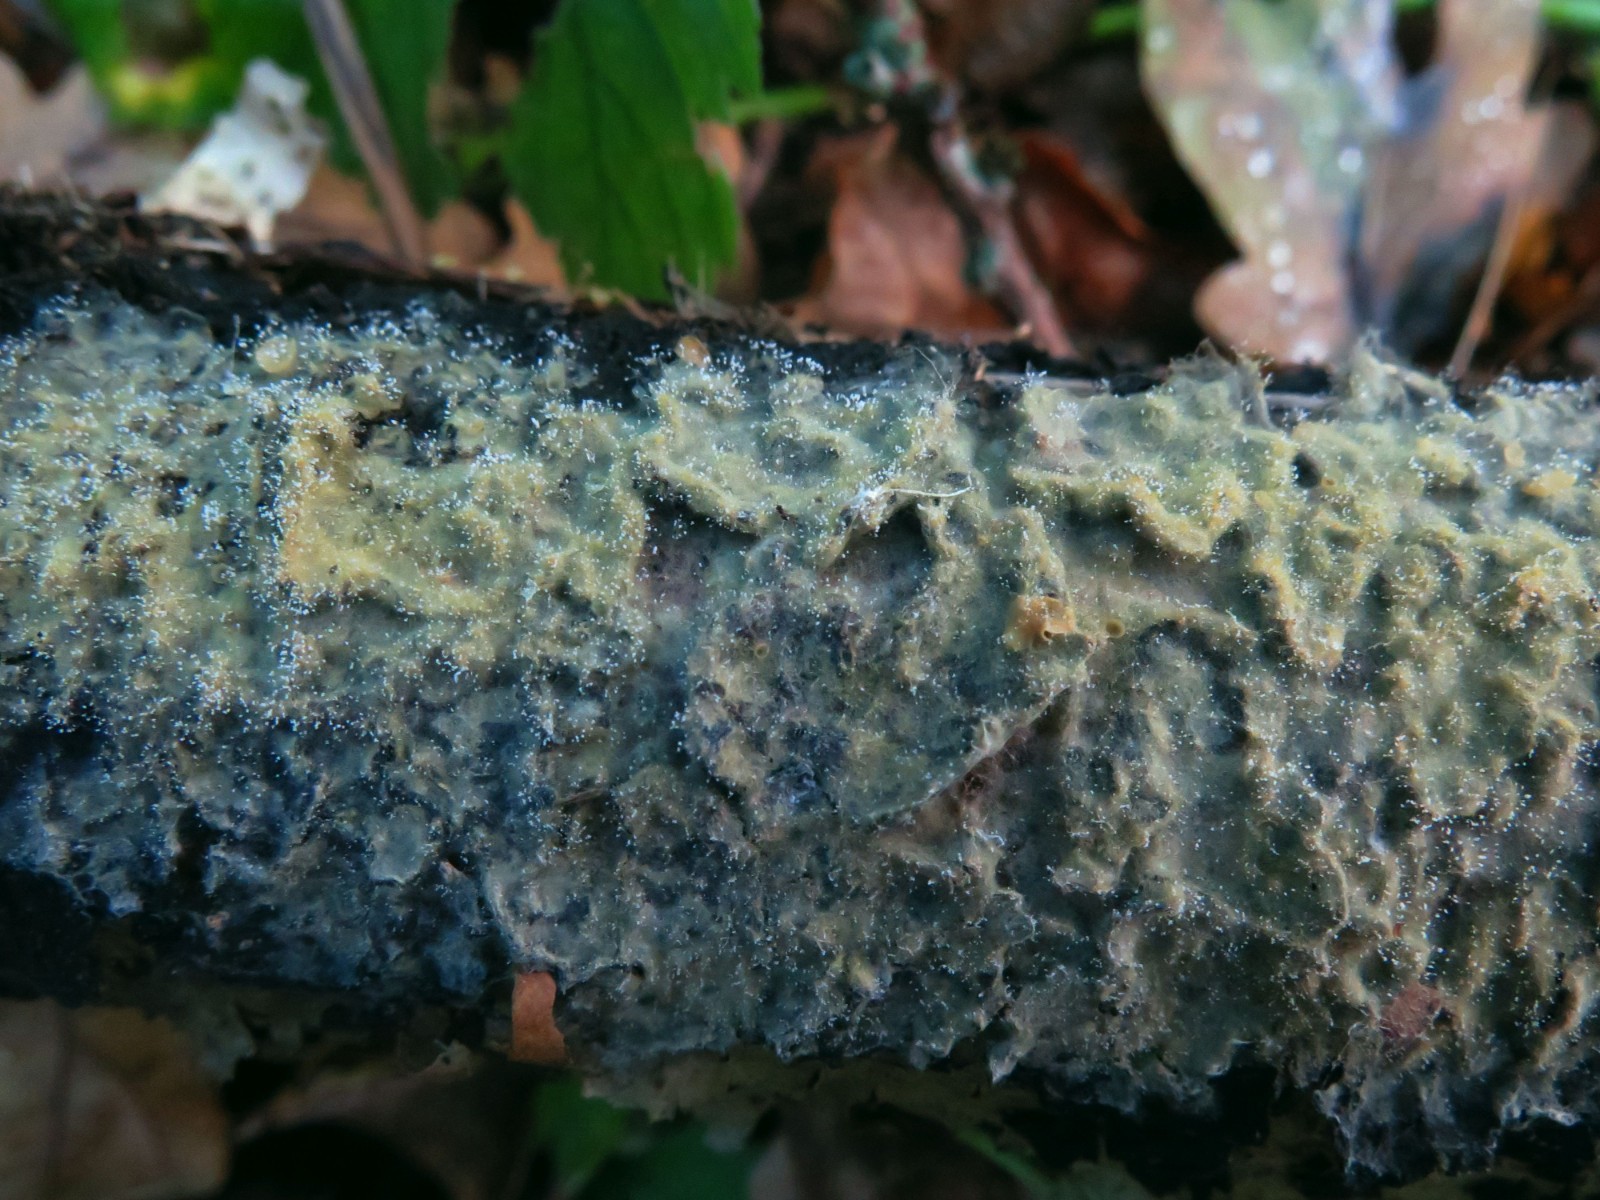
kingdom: Fungi
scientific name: Fungi
